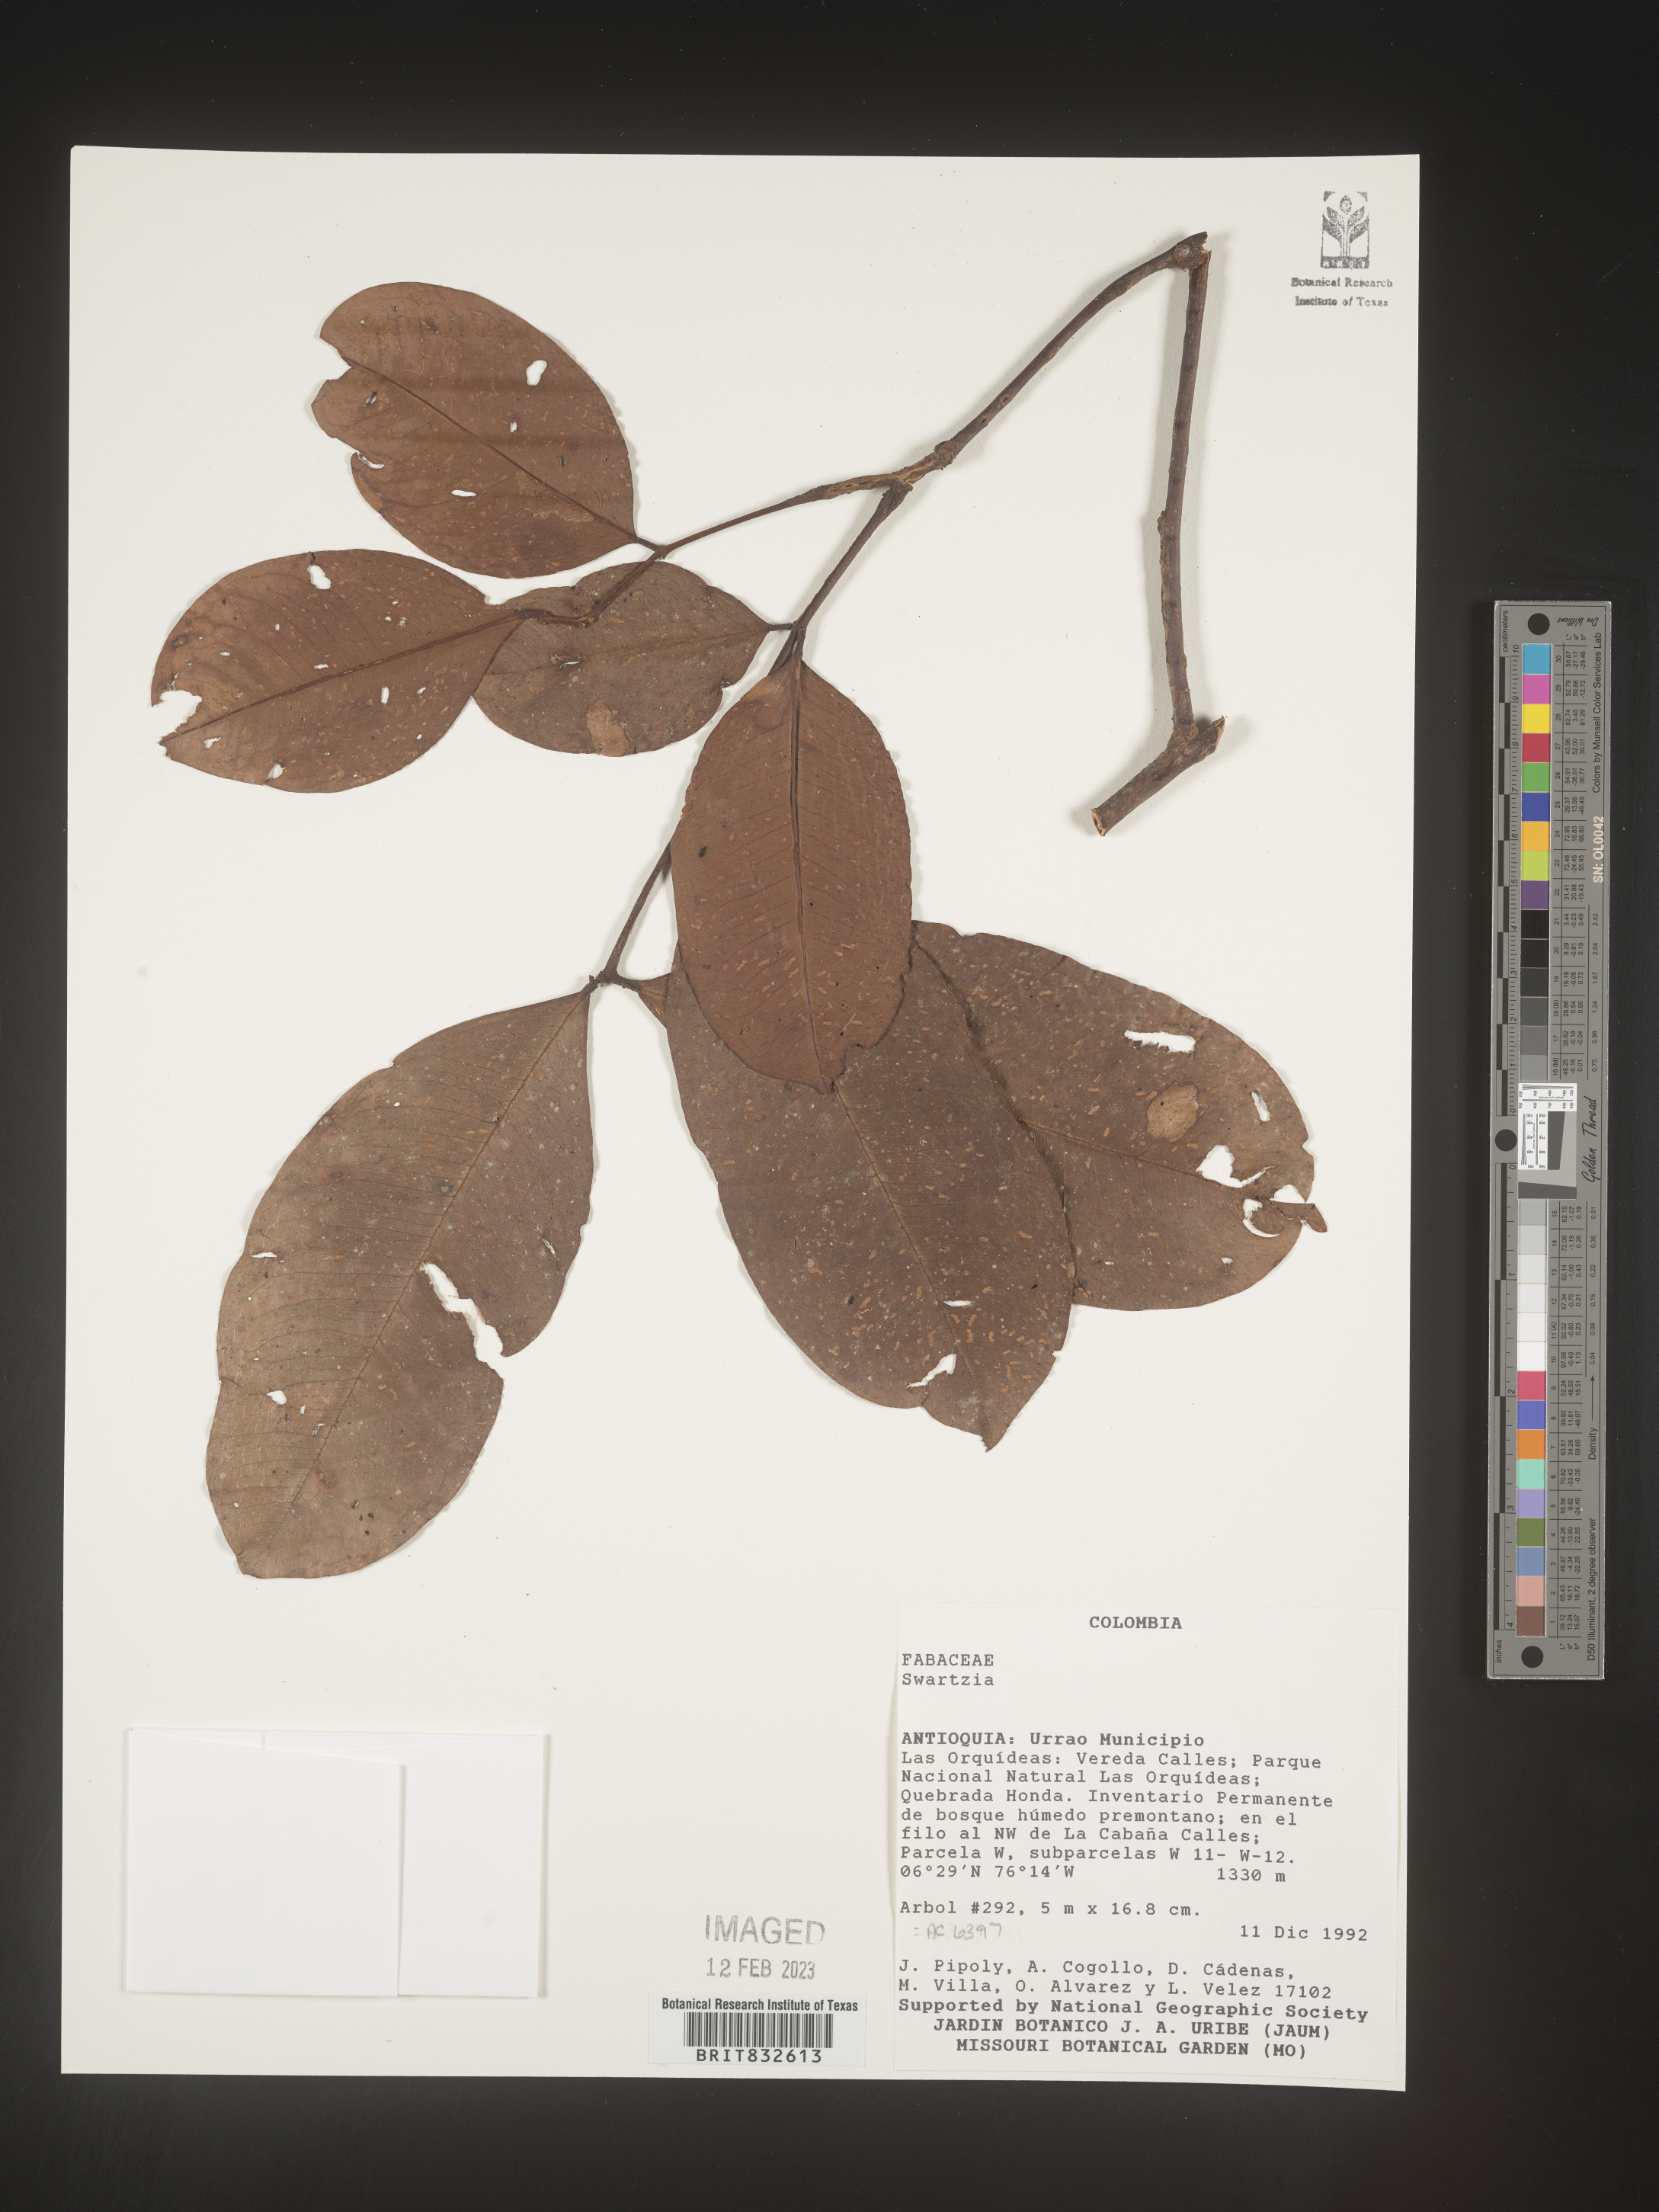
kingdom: Plantae
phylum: Tracheophyta
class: Magnoliopsida
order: Fabales
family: Fabaceae
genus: Swartzia
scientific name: Swartzia
